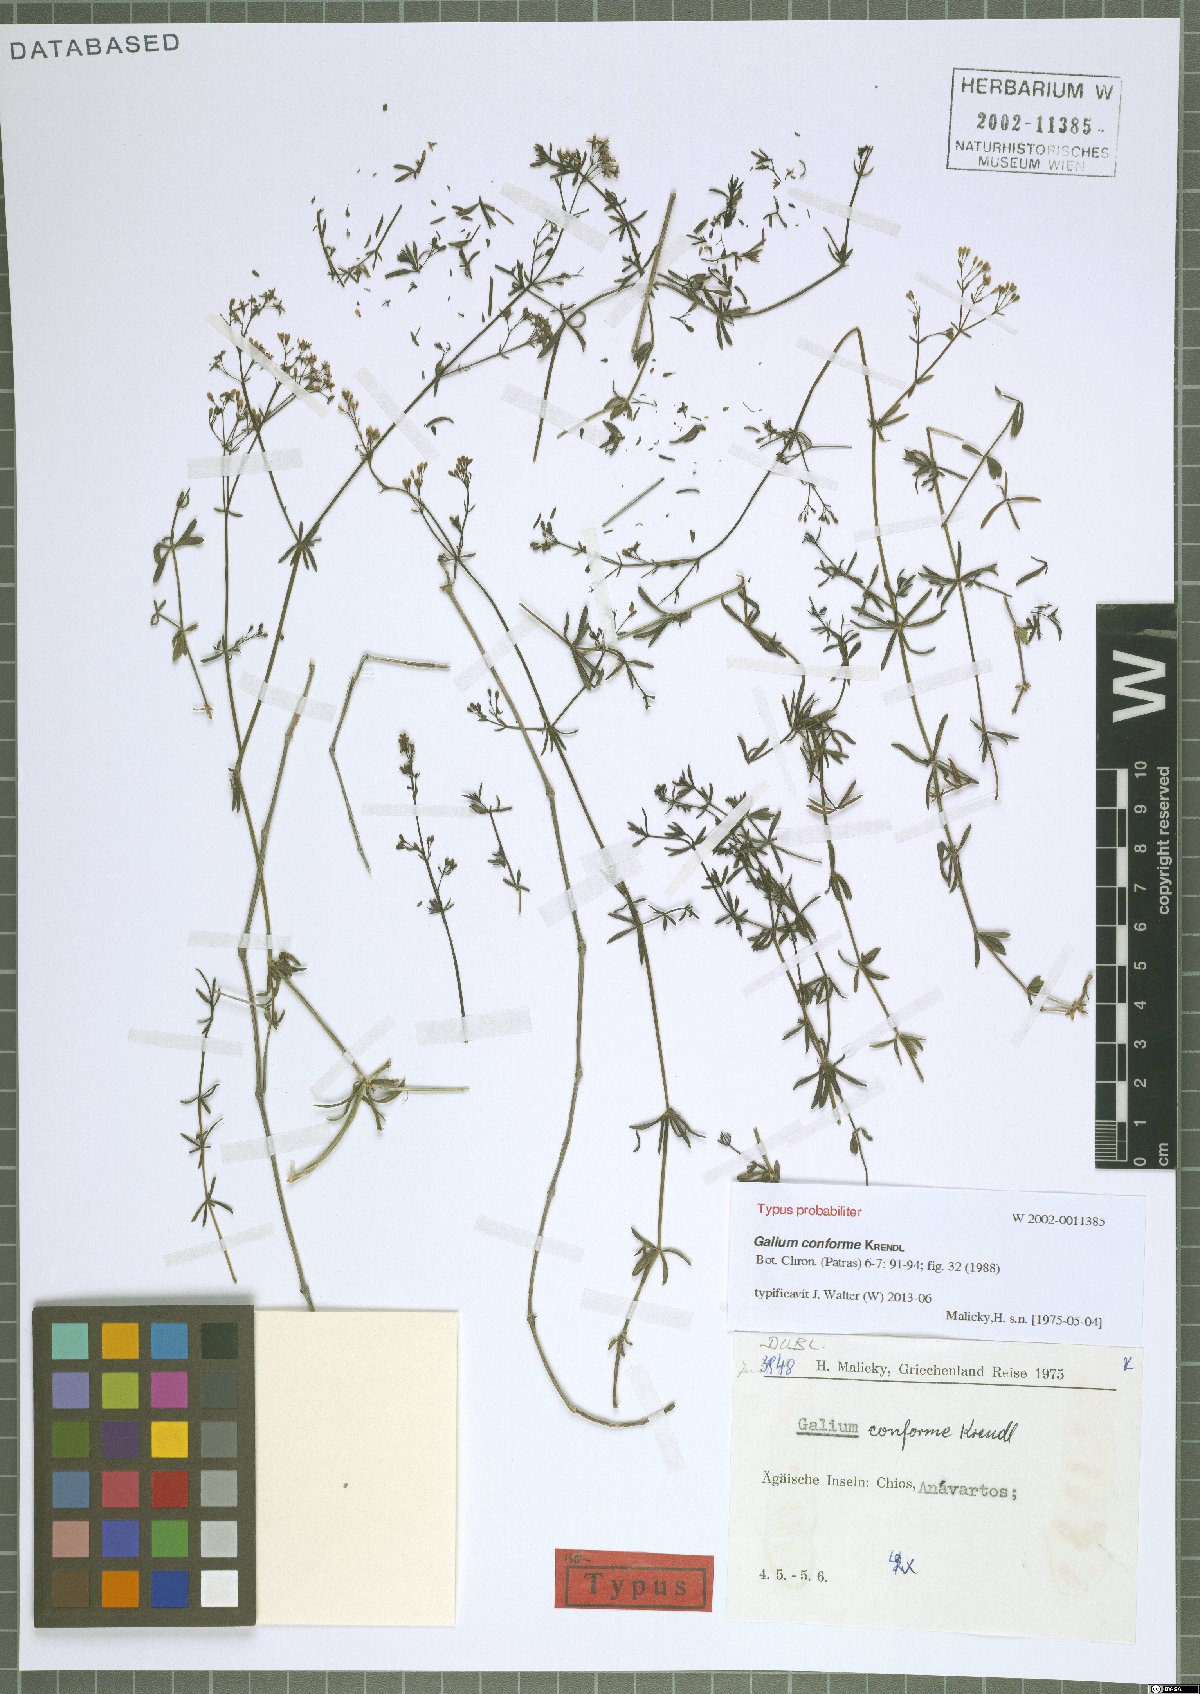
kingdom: Plantae
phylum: Tracheophyta
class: Magnoliopsida
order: Gentianales
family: Rubiaceae
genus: Galium
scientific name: Galium conforme
